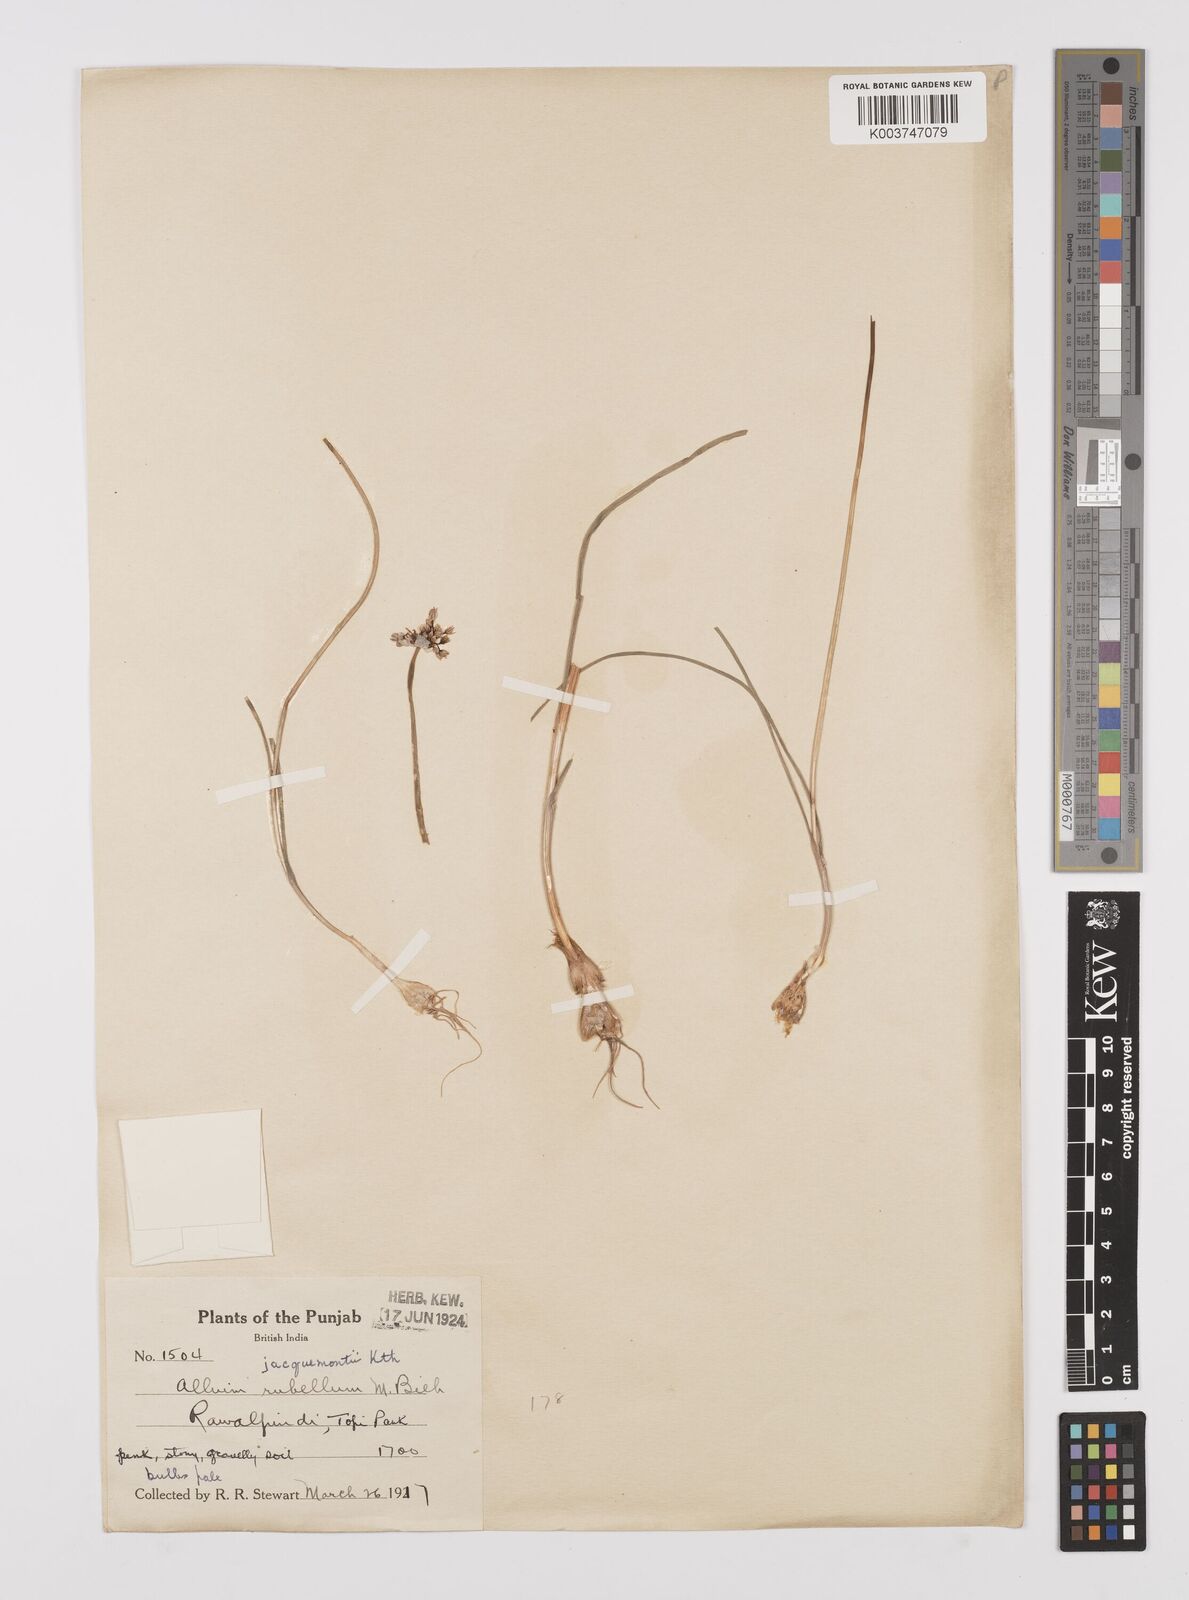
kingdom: Plantae
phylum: Tracheophyta
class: Liliopsida
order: Asparagales
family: Amaryllidaceae
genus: Allium
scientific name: Allium rubellum
